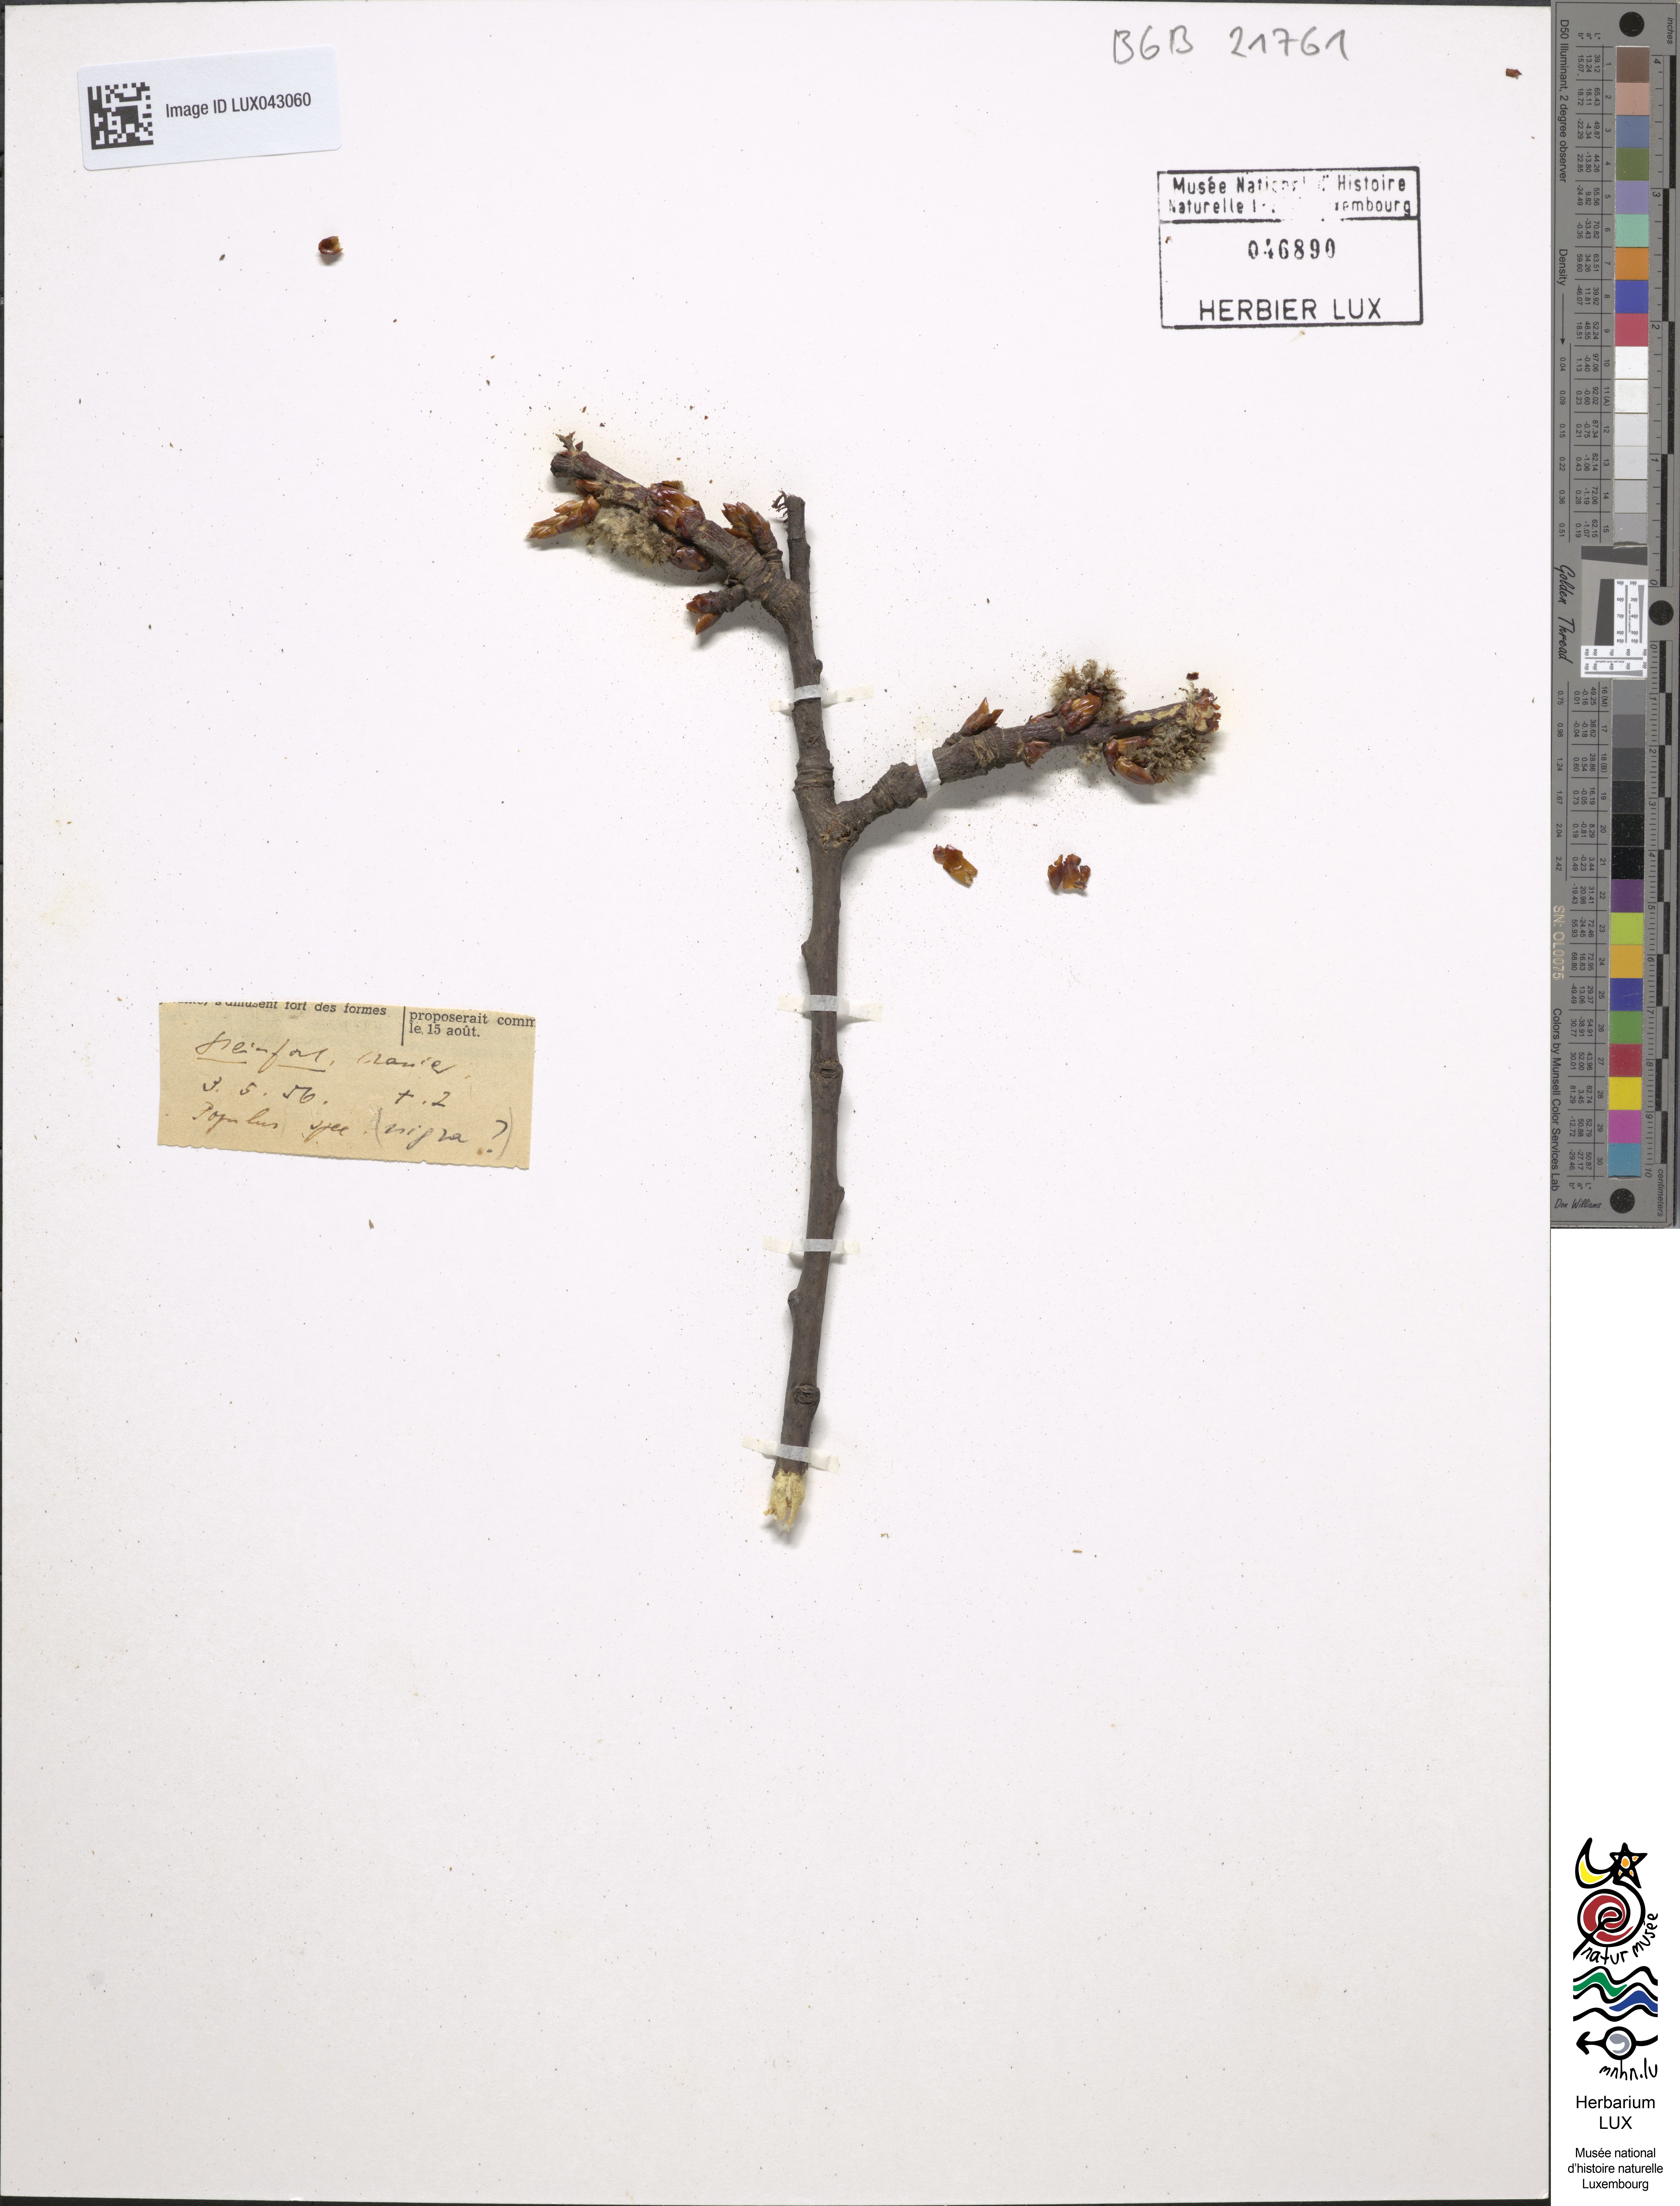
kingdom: Plantae
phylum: Tracheophyta
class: Magnoliopsida
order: Malpighiales
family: Salicaceae
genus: Populus
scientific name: Populus
